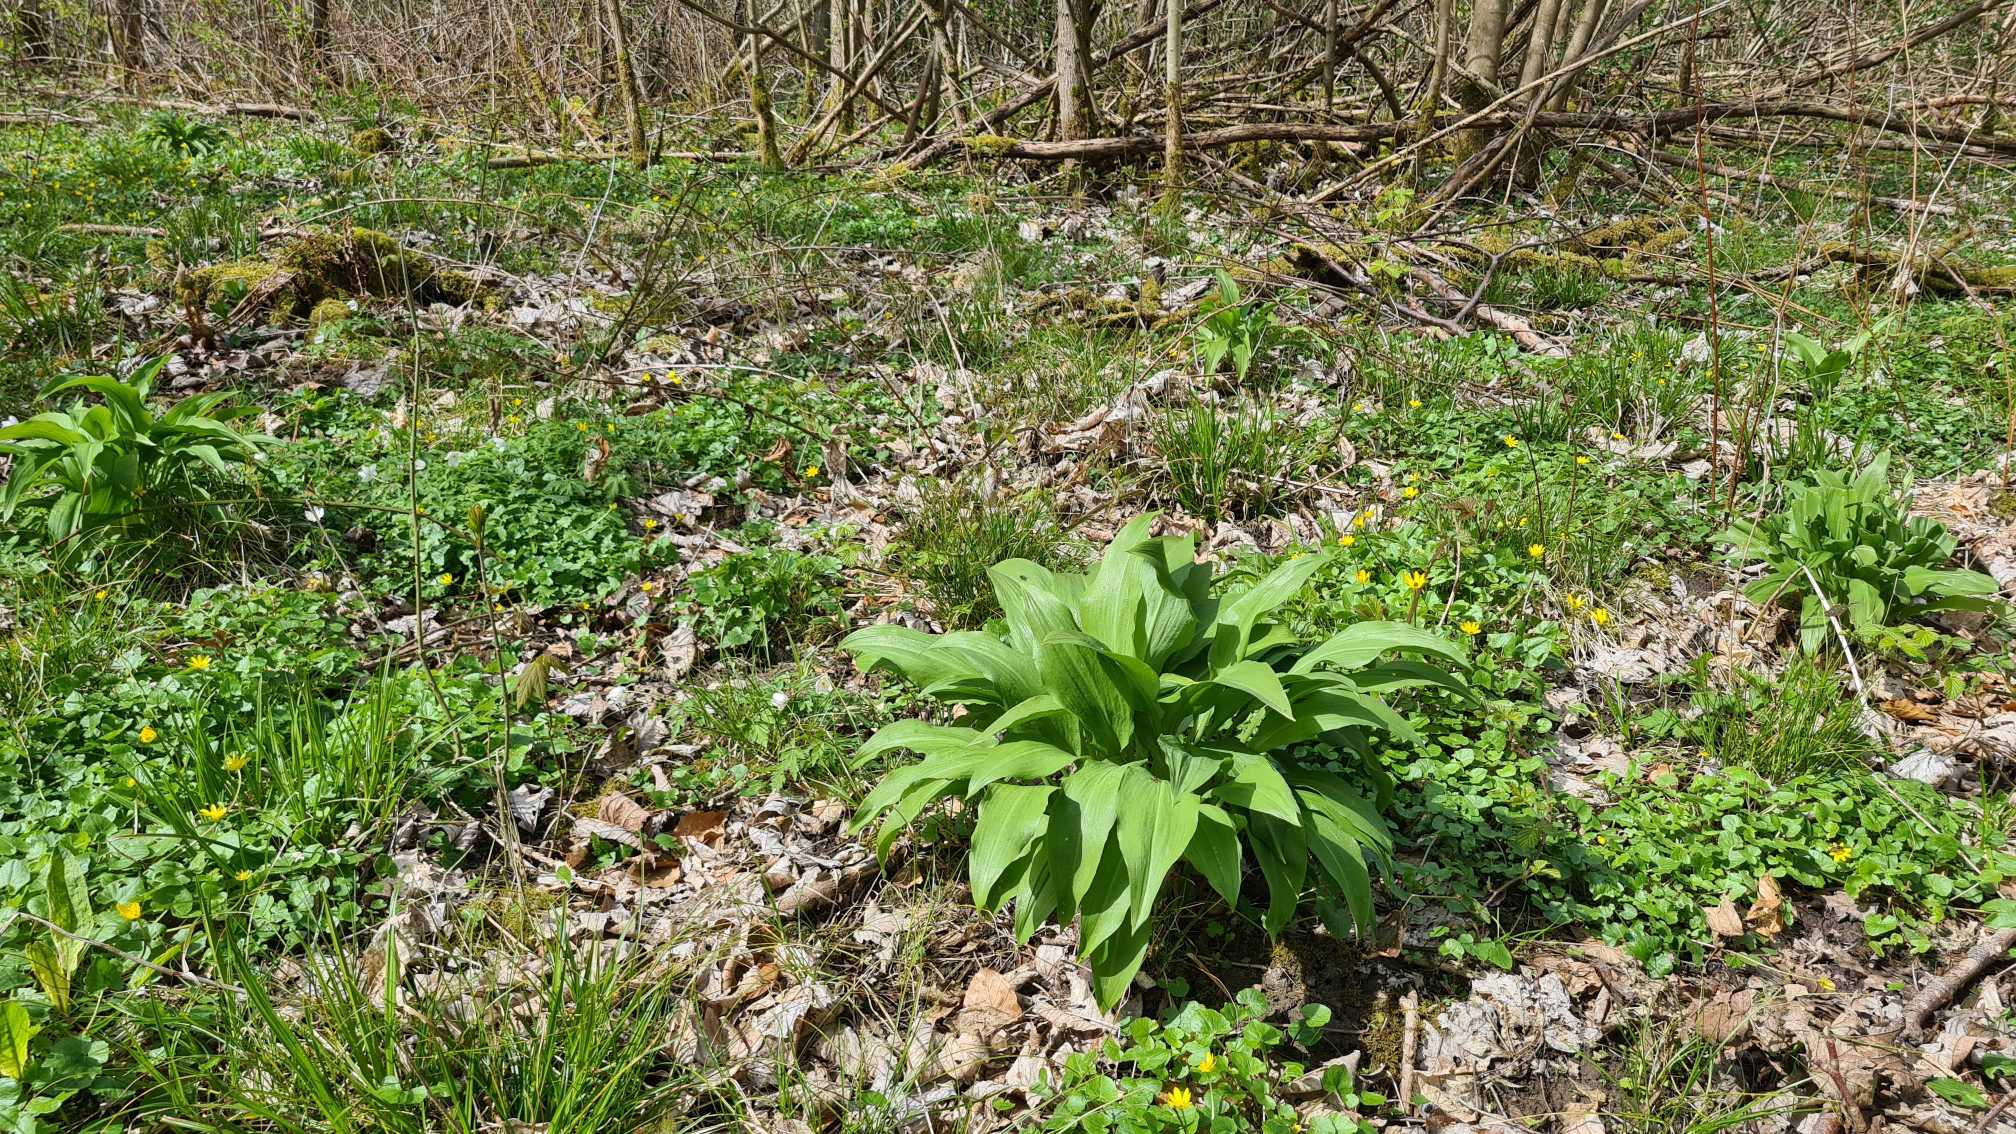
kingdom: Plantae
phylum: Tracheophyta
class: Liliopsida
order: Asparagales
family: Amaryllidaceae
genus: Allium
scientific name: Allium ursinum
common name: Rams-løg
